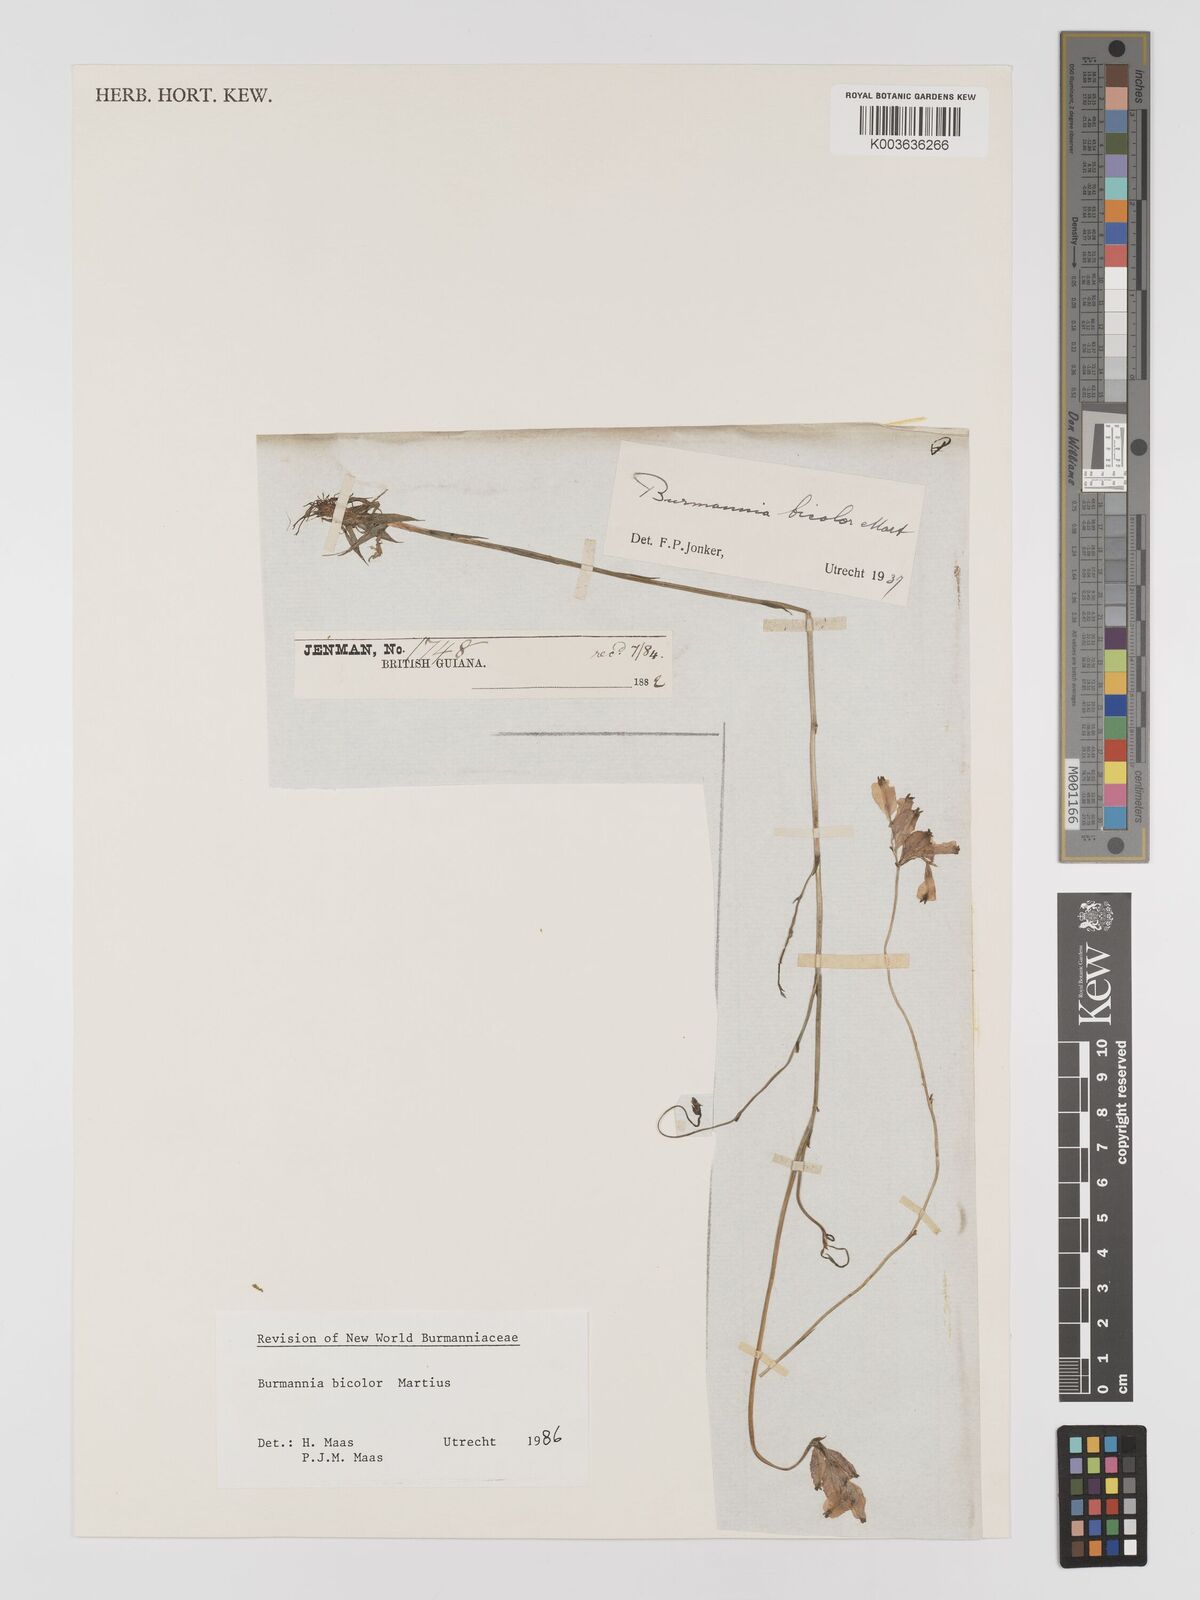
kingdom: Plantae
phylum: Tracheophyta
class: Liliopsida
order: Dioscoreales
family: Burmanniaceae
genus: Burmannia
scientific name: Burmannia bicolor
